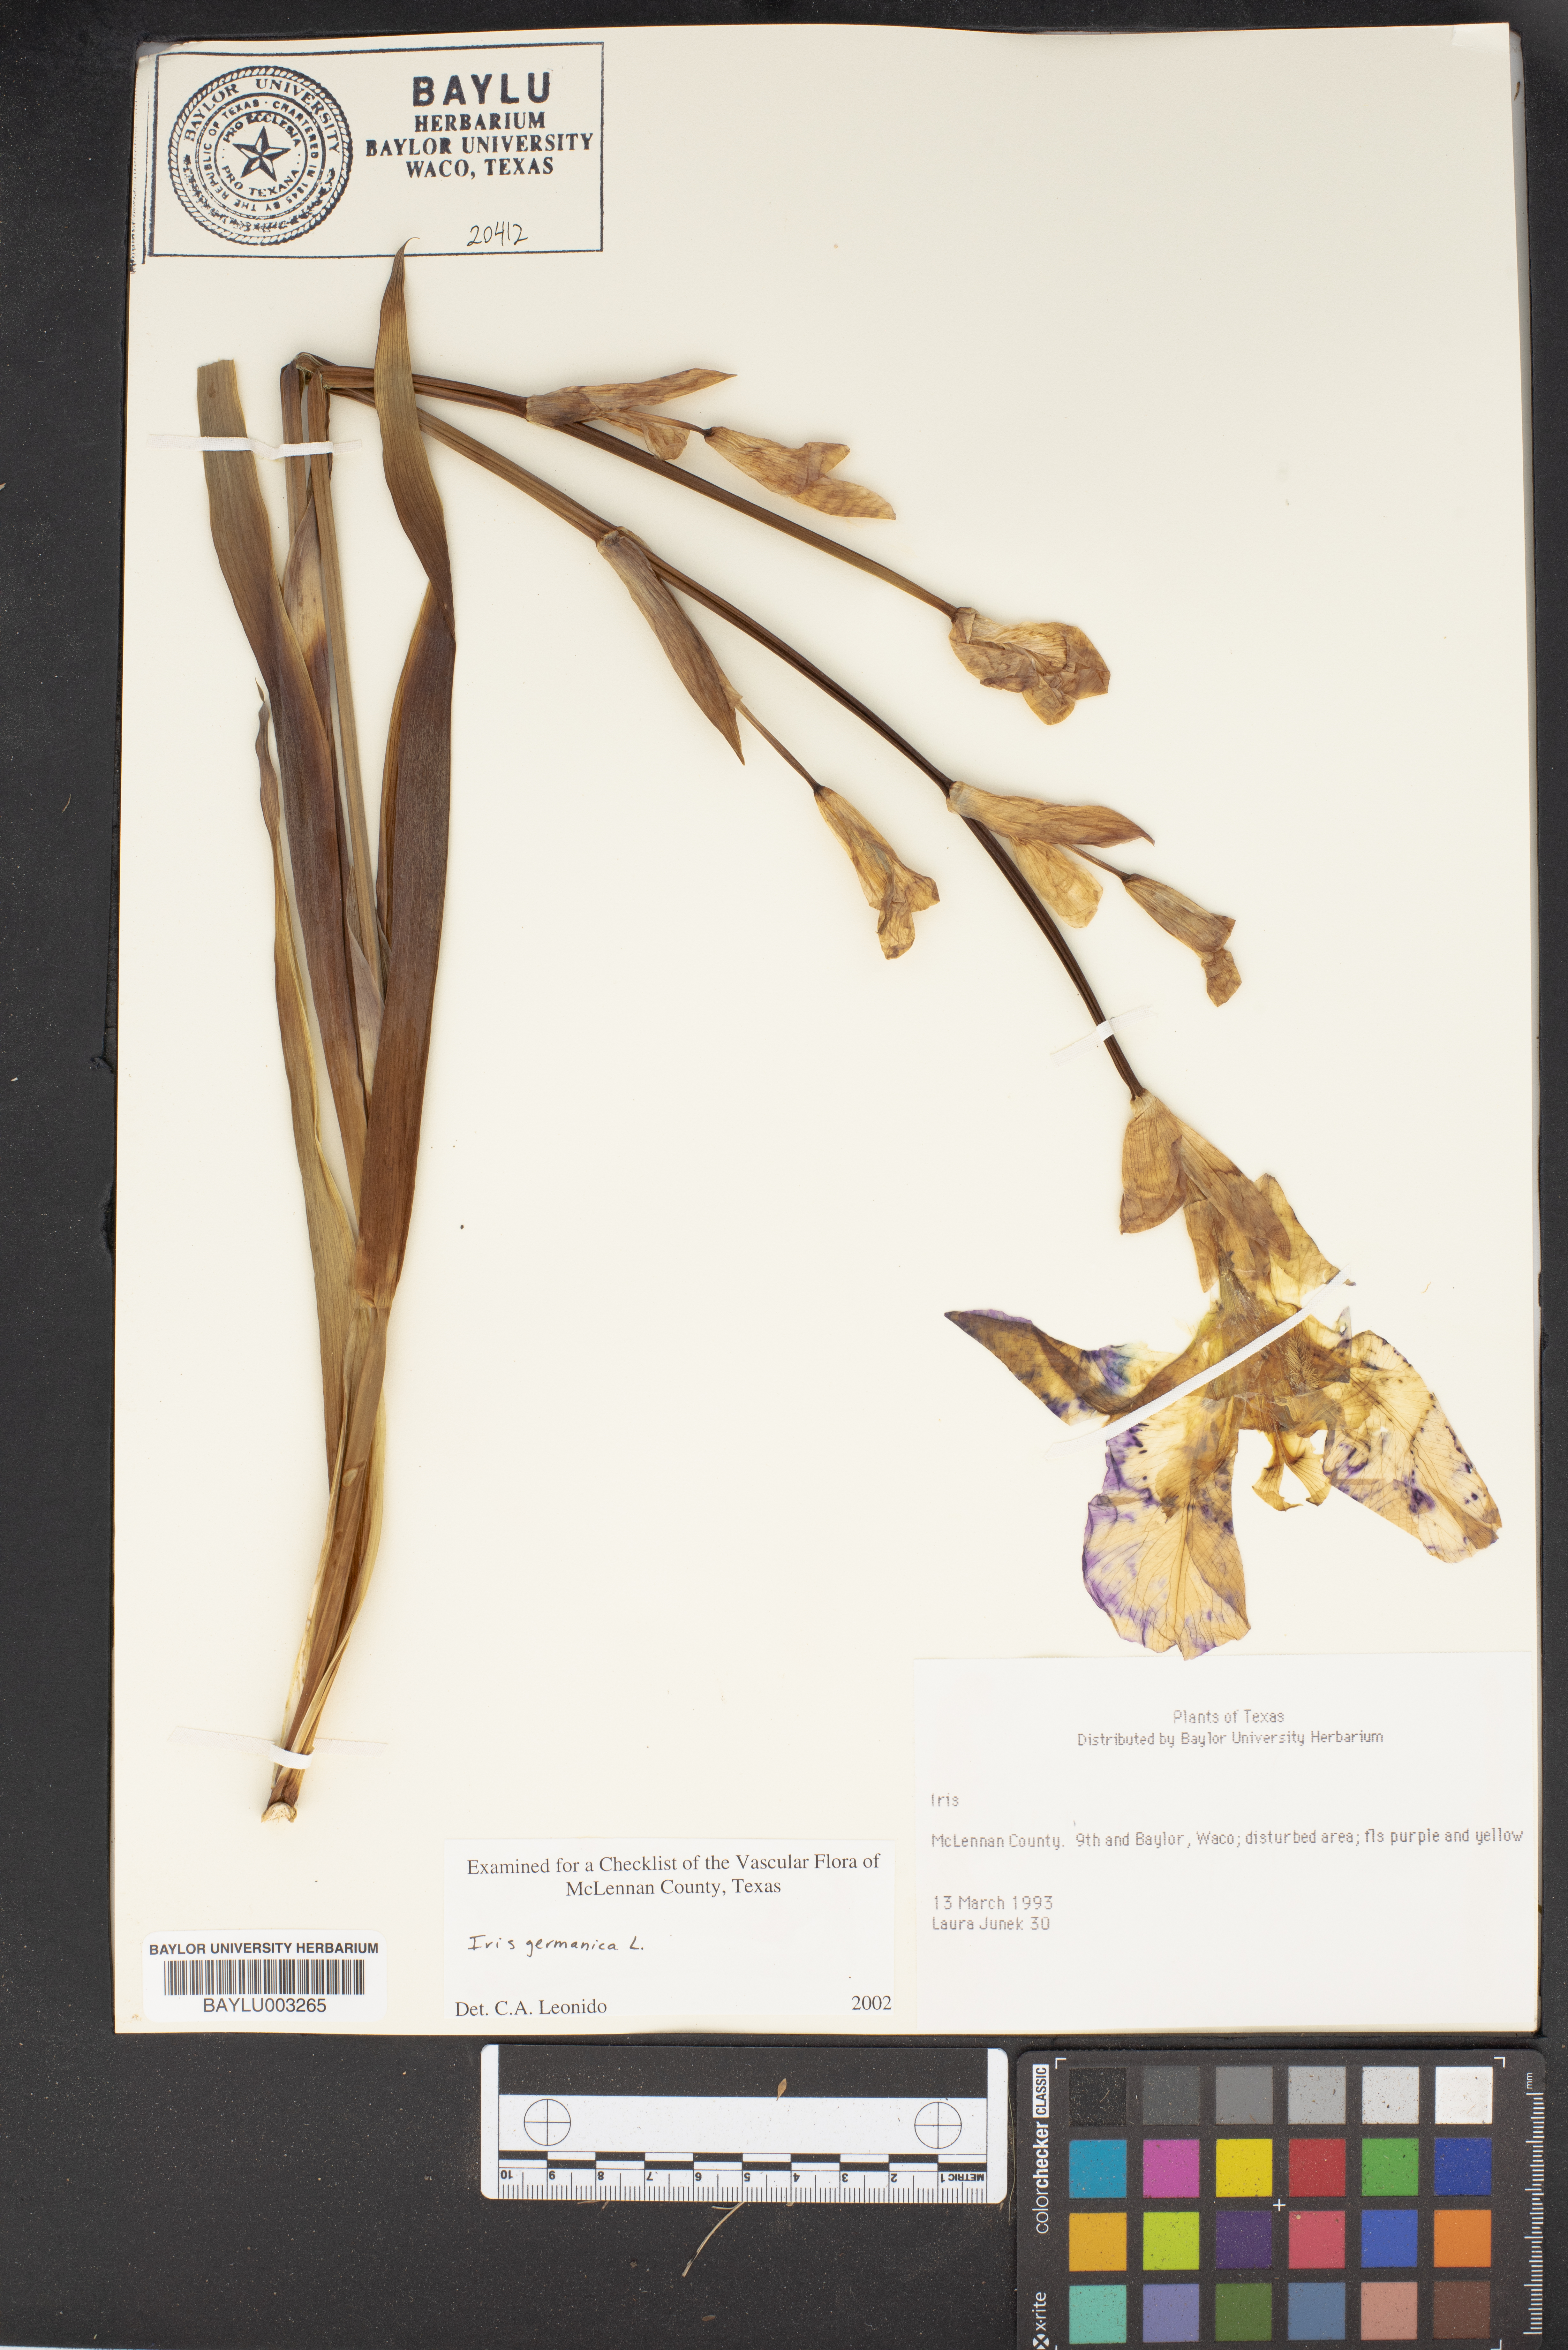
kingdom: Plantae
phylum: Tracheophyta
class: Liliopsida
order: Asparagales
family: Iridaceae
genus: Iris
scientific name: Iris germanica
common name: German iris
